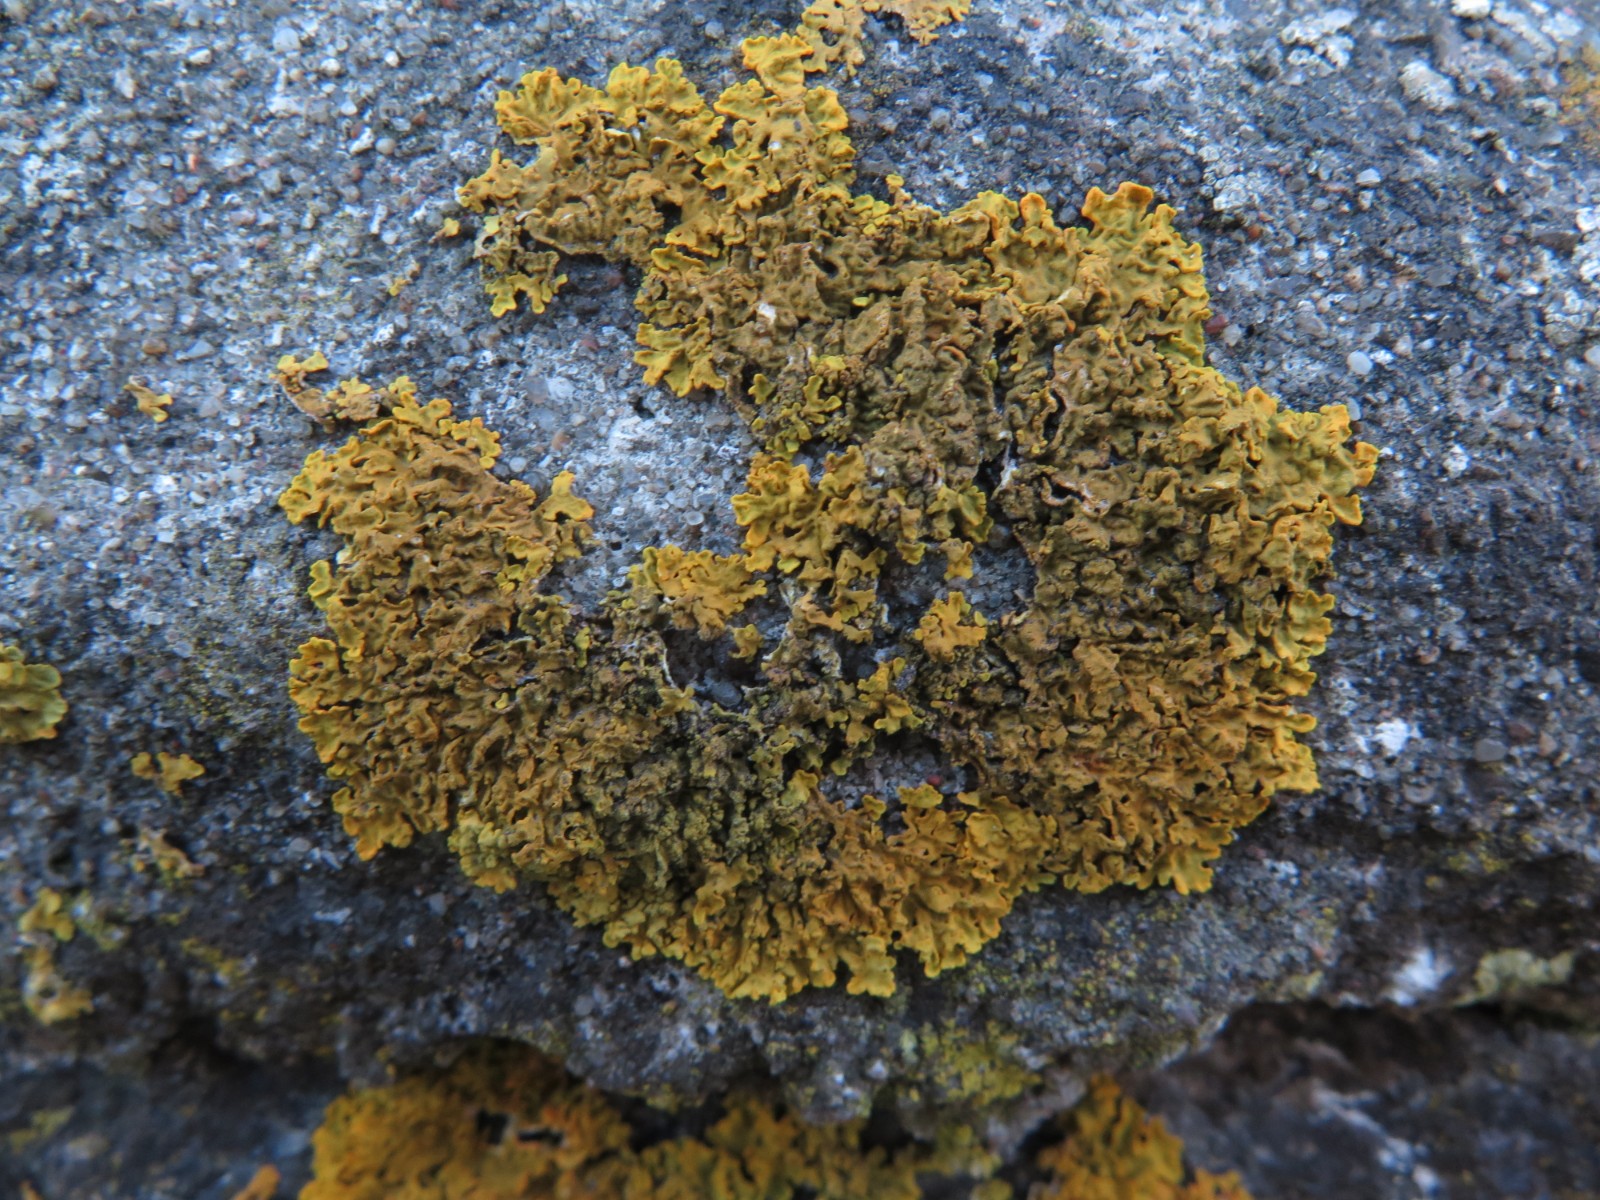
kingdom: Fungi
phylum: Ascomycota
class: Lecanoromycetes
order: Teloschistales
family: Teloschistaceae
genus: Xanthoria
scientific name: Xanthoria parietina
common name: almindelig væggelav
